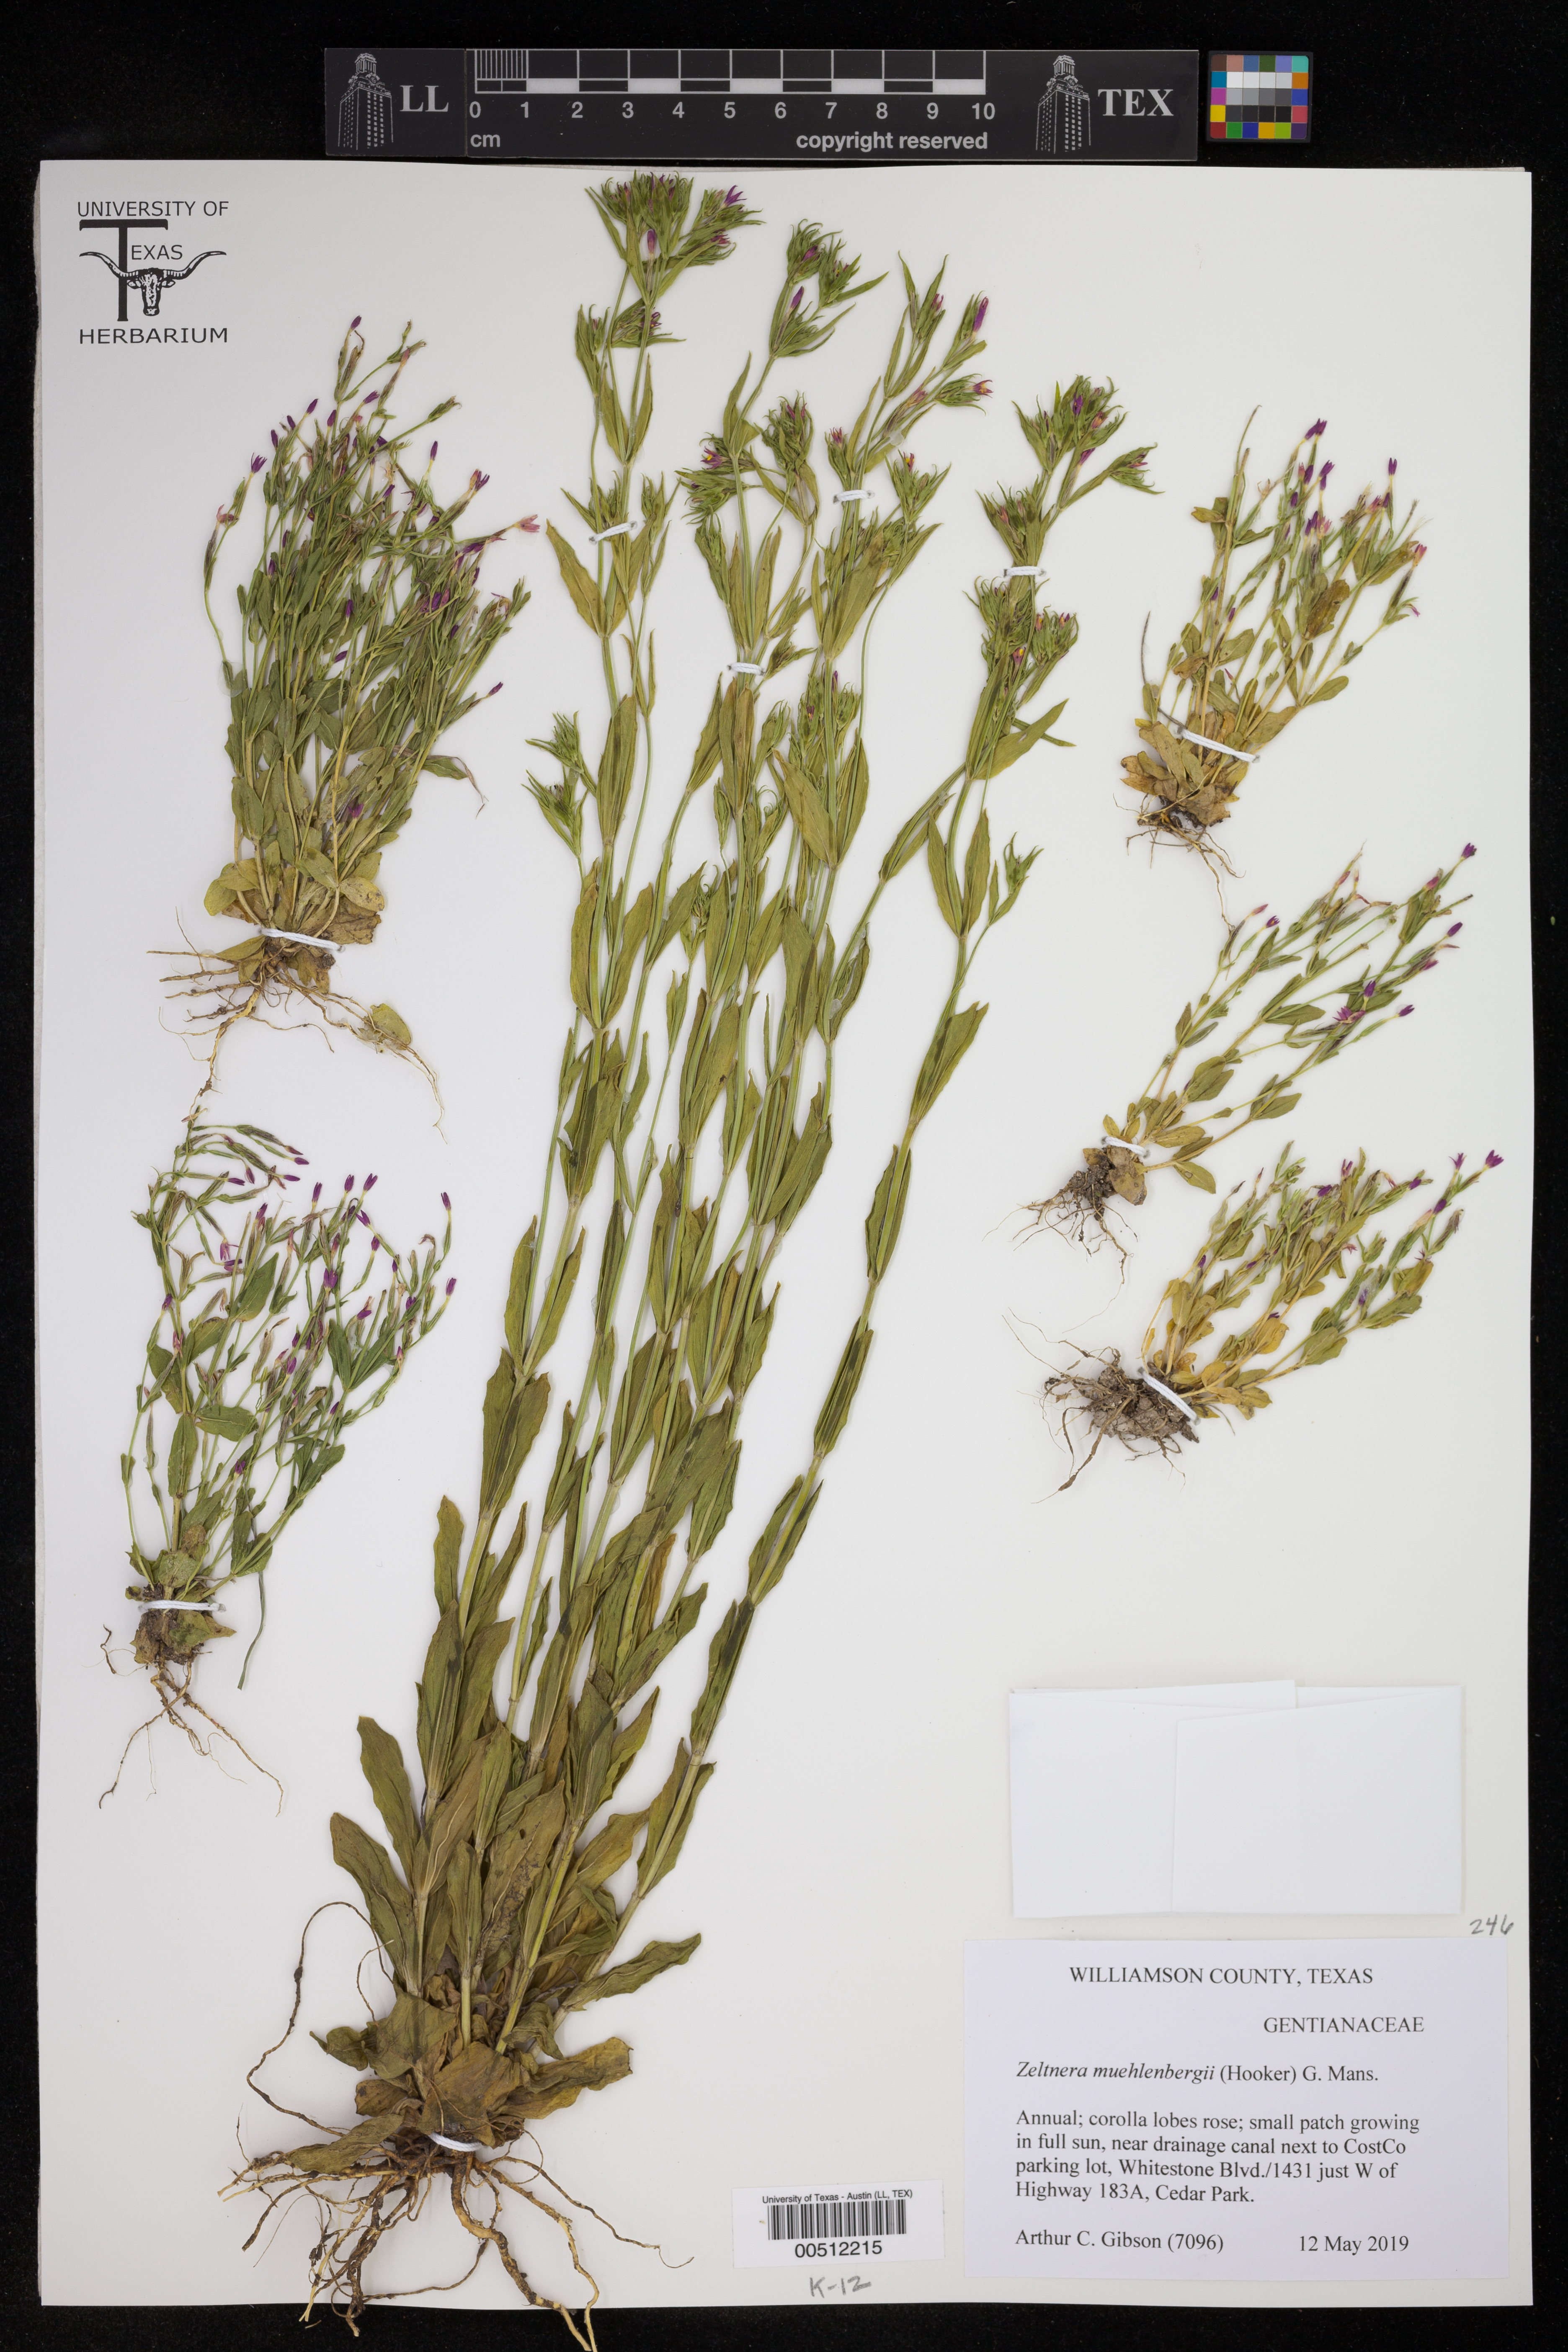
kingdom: Plantae
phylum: Tracheophyta
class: Magnoliopsida
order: Gentianales
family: Gentianaceae
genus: Centaurium
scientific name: Centaurium tenuiflorum
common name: Slender centaury
